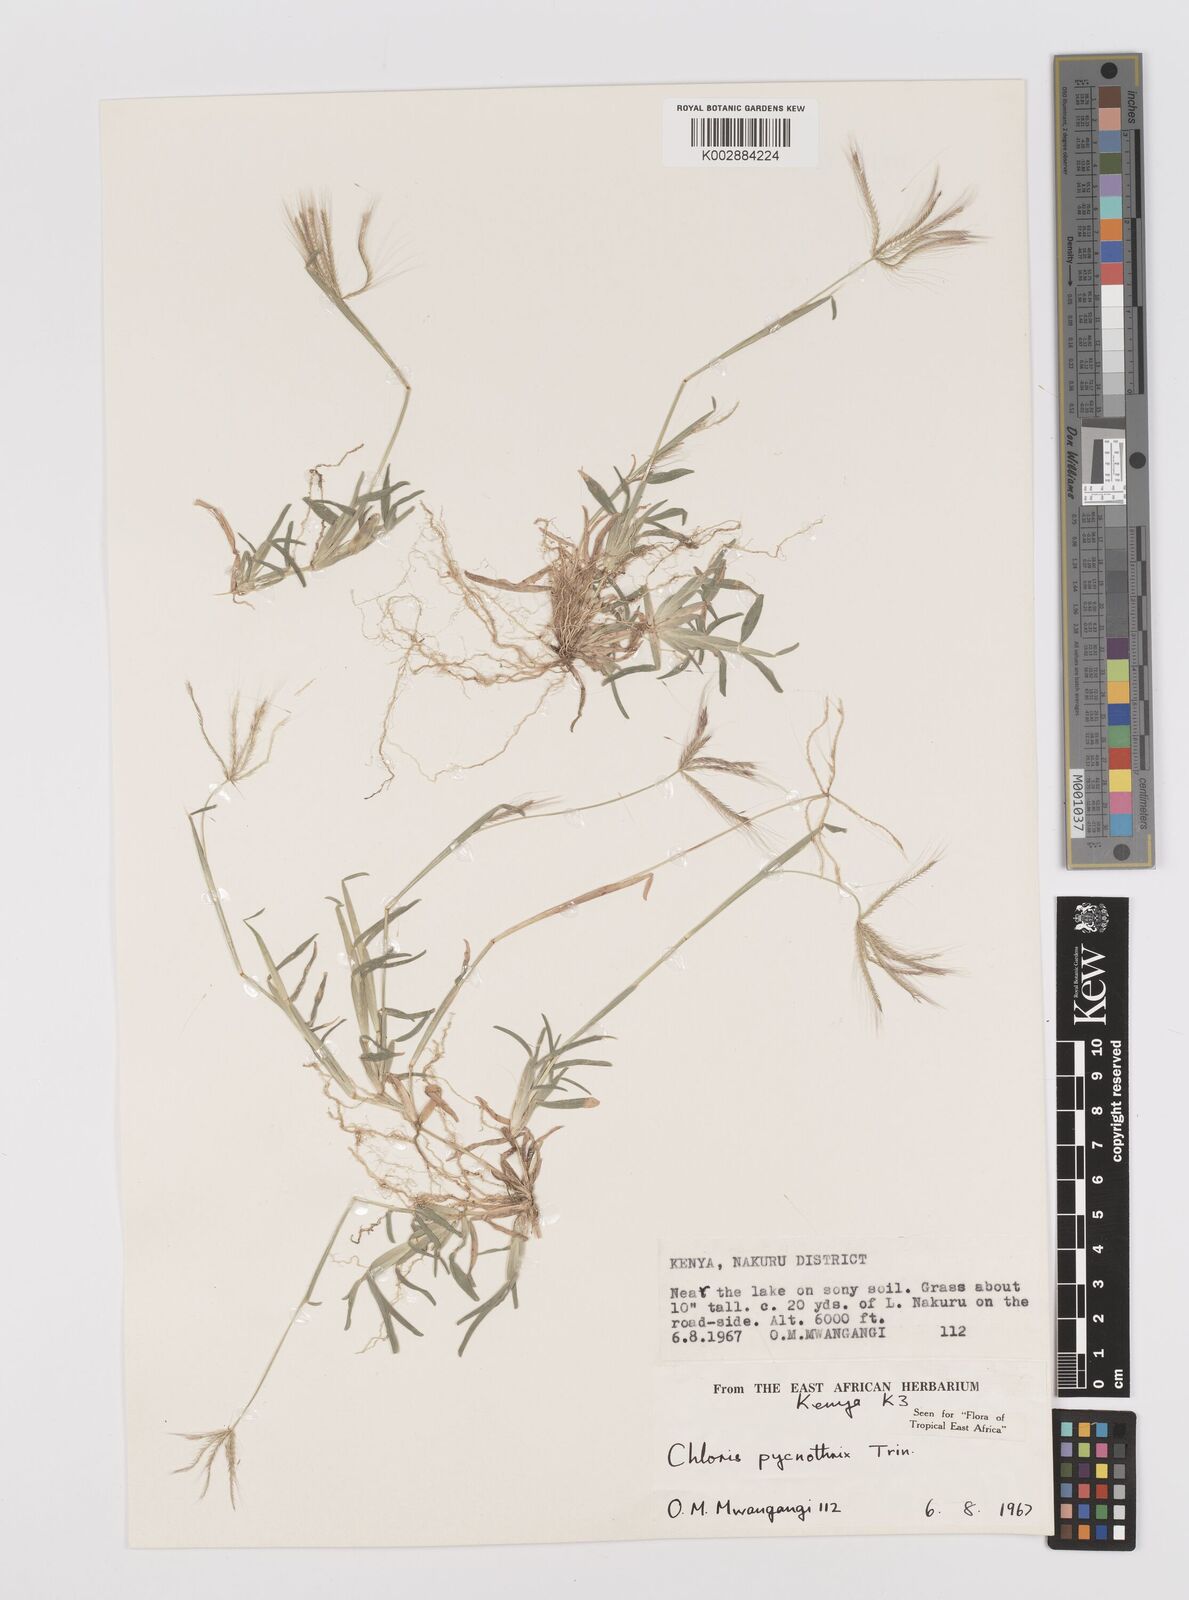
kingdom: Plantae
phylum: Tracheophyta
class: Liliopsida
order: Poales
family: Poaceae
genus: Chloris
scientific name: Chloris pycnothrix
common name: Spiderweb chloris
